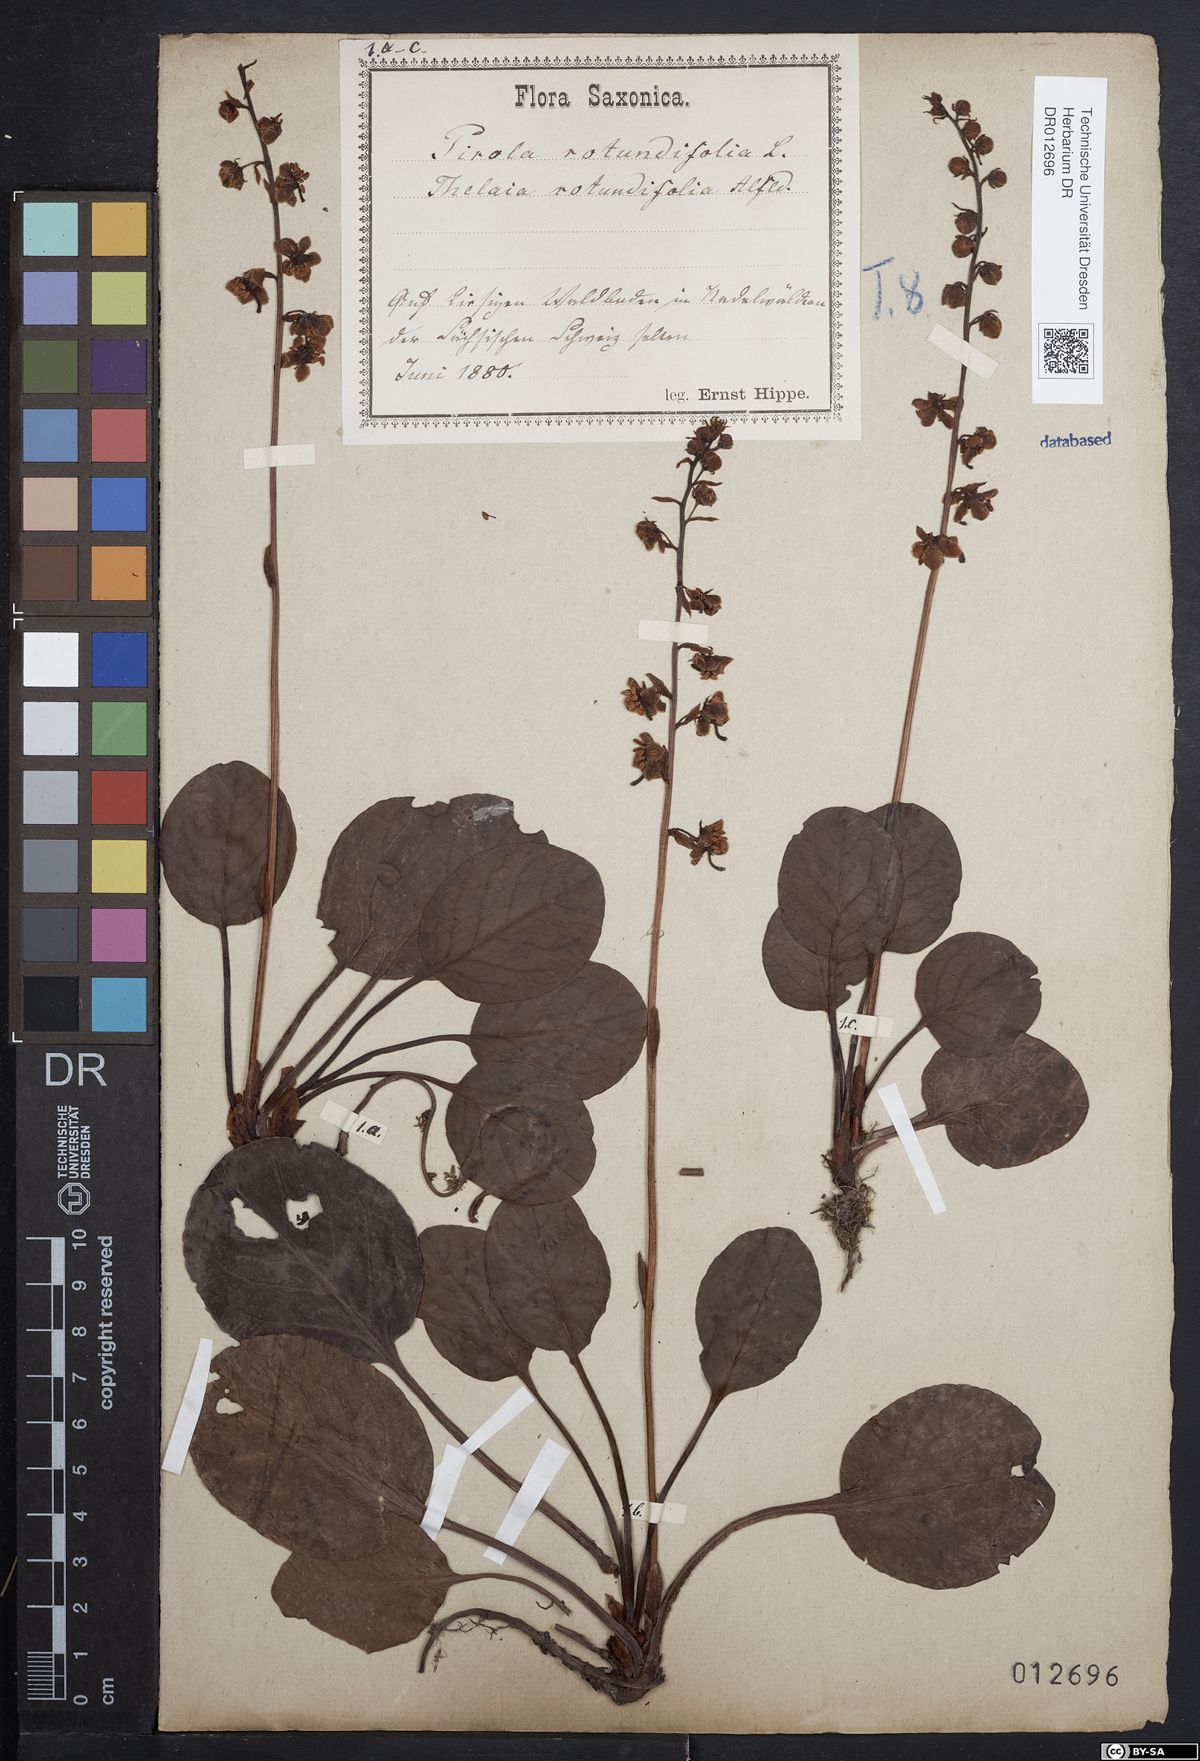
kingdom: Plantae
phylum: Tracheophyta
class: Magnoliopsida
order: Ericales
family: Ericaceae
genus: Pyrola
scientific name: Pyrola rotundifolia
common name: Round-leaved wintergreen
